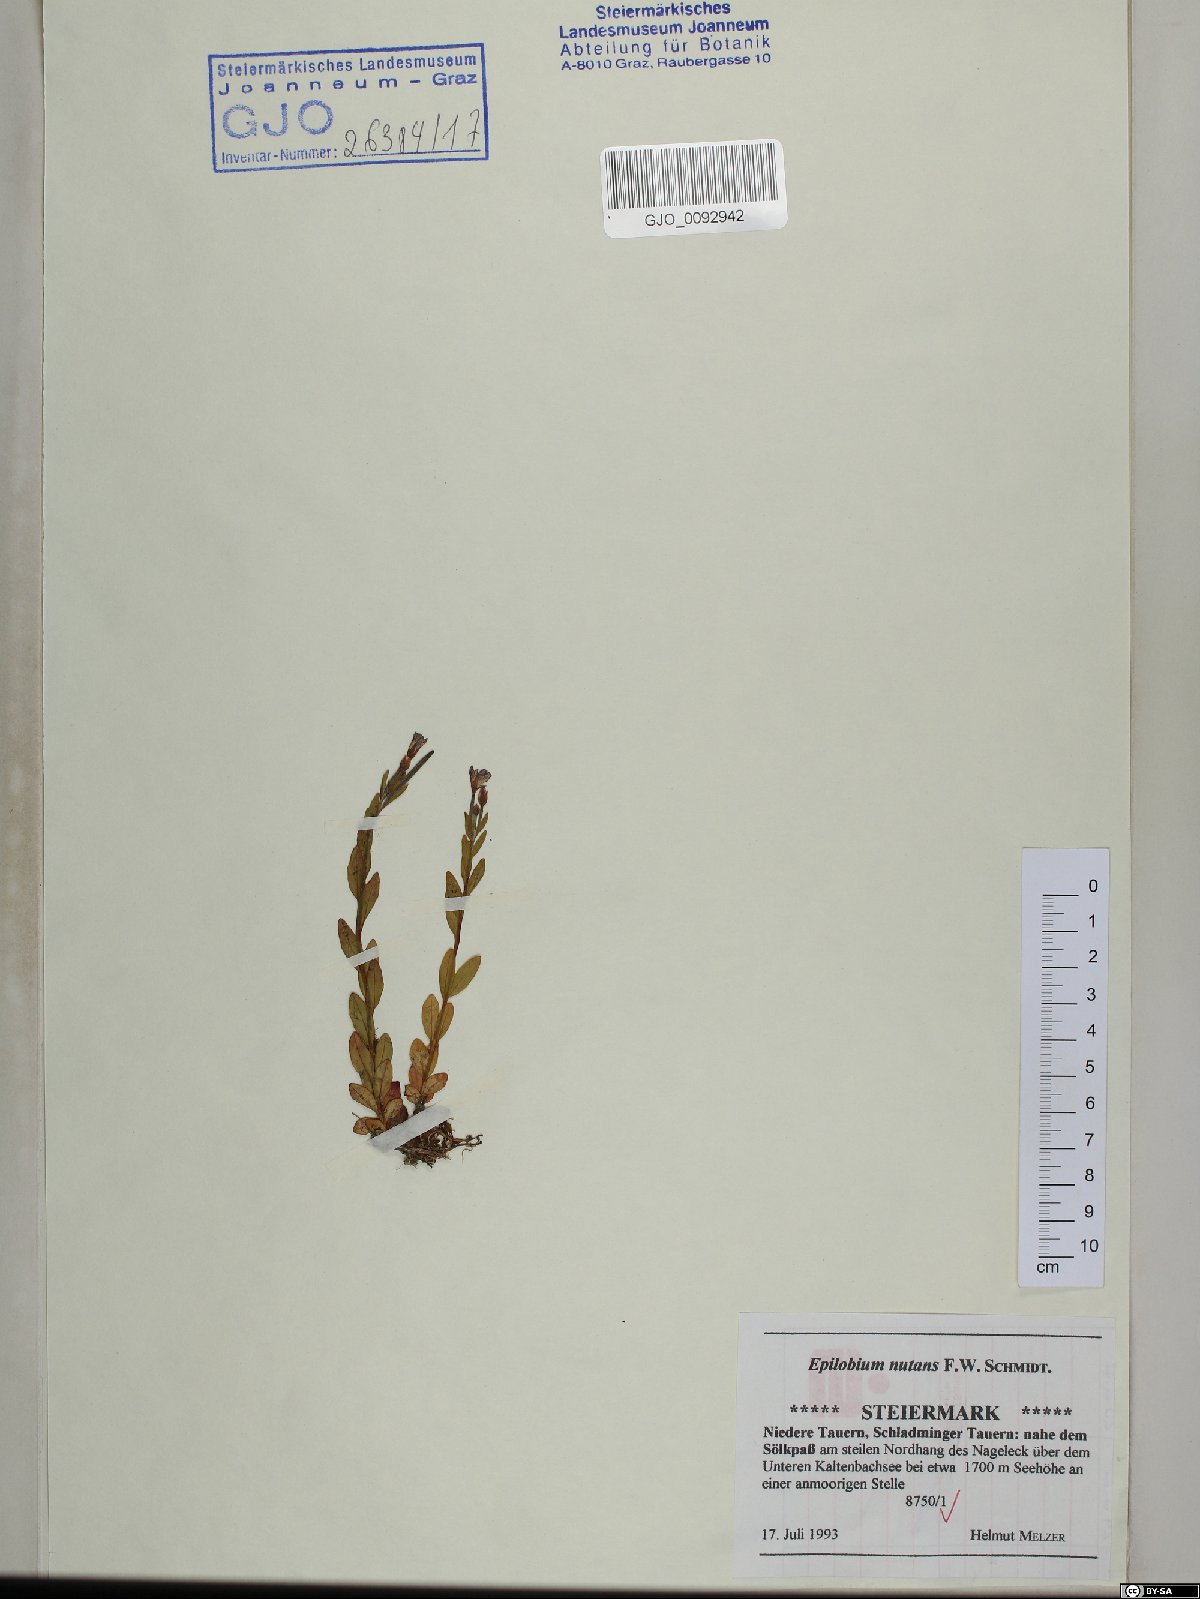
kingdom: Plantae
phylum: Tracheophyta
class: Magnoliopsida
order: Myrtales
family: Onagraceae
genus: Epilobium
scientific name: Epilobium nutans
